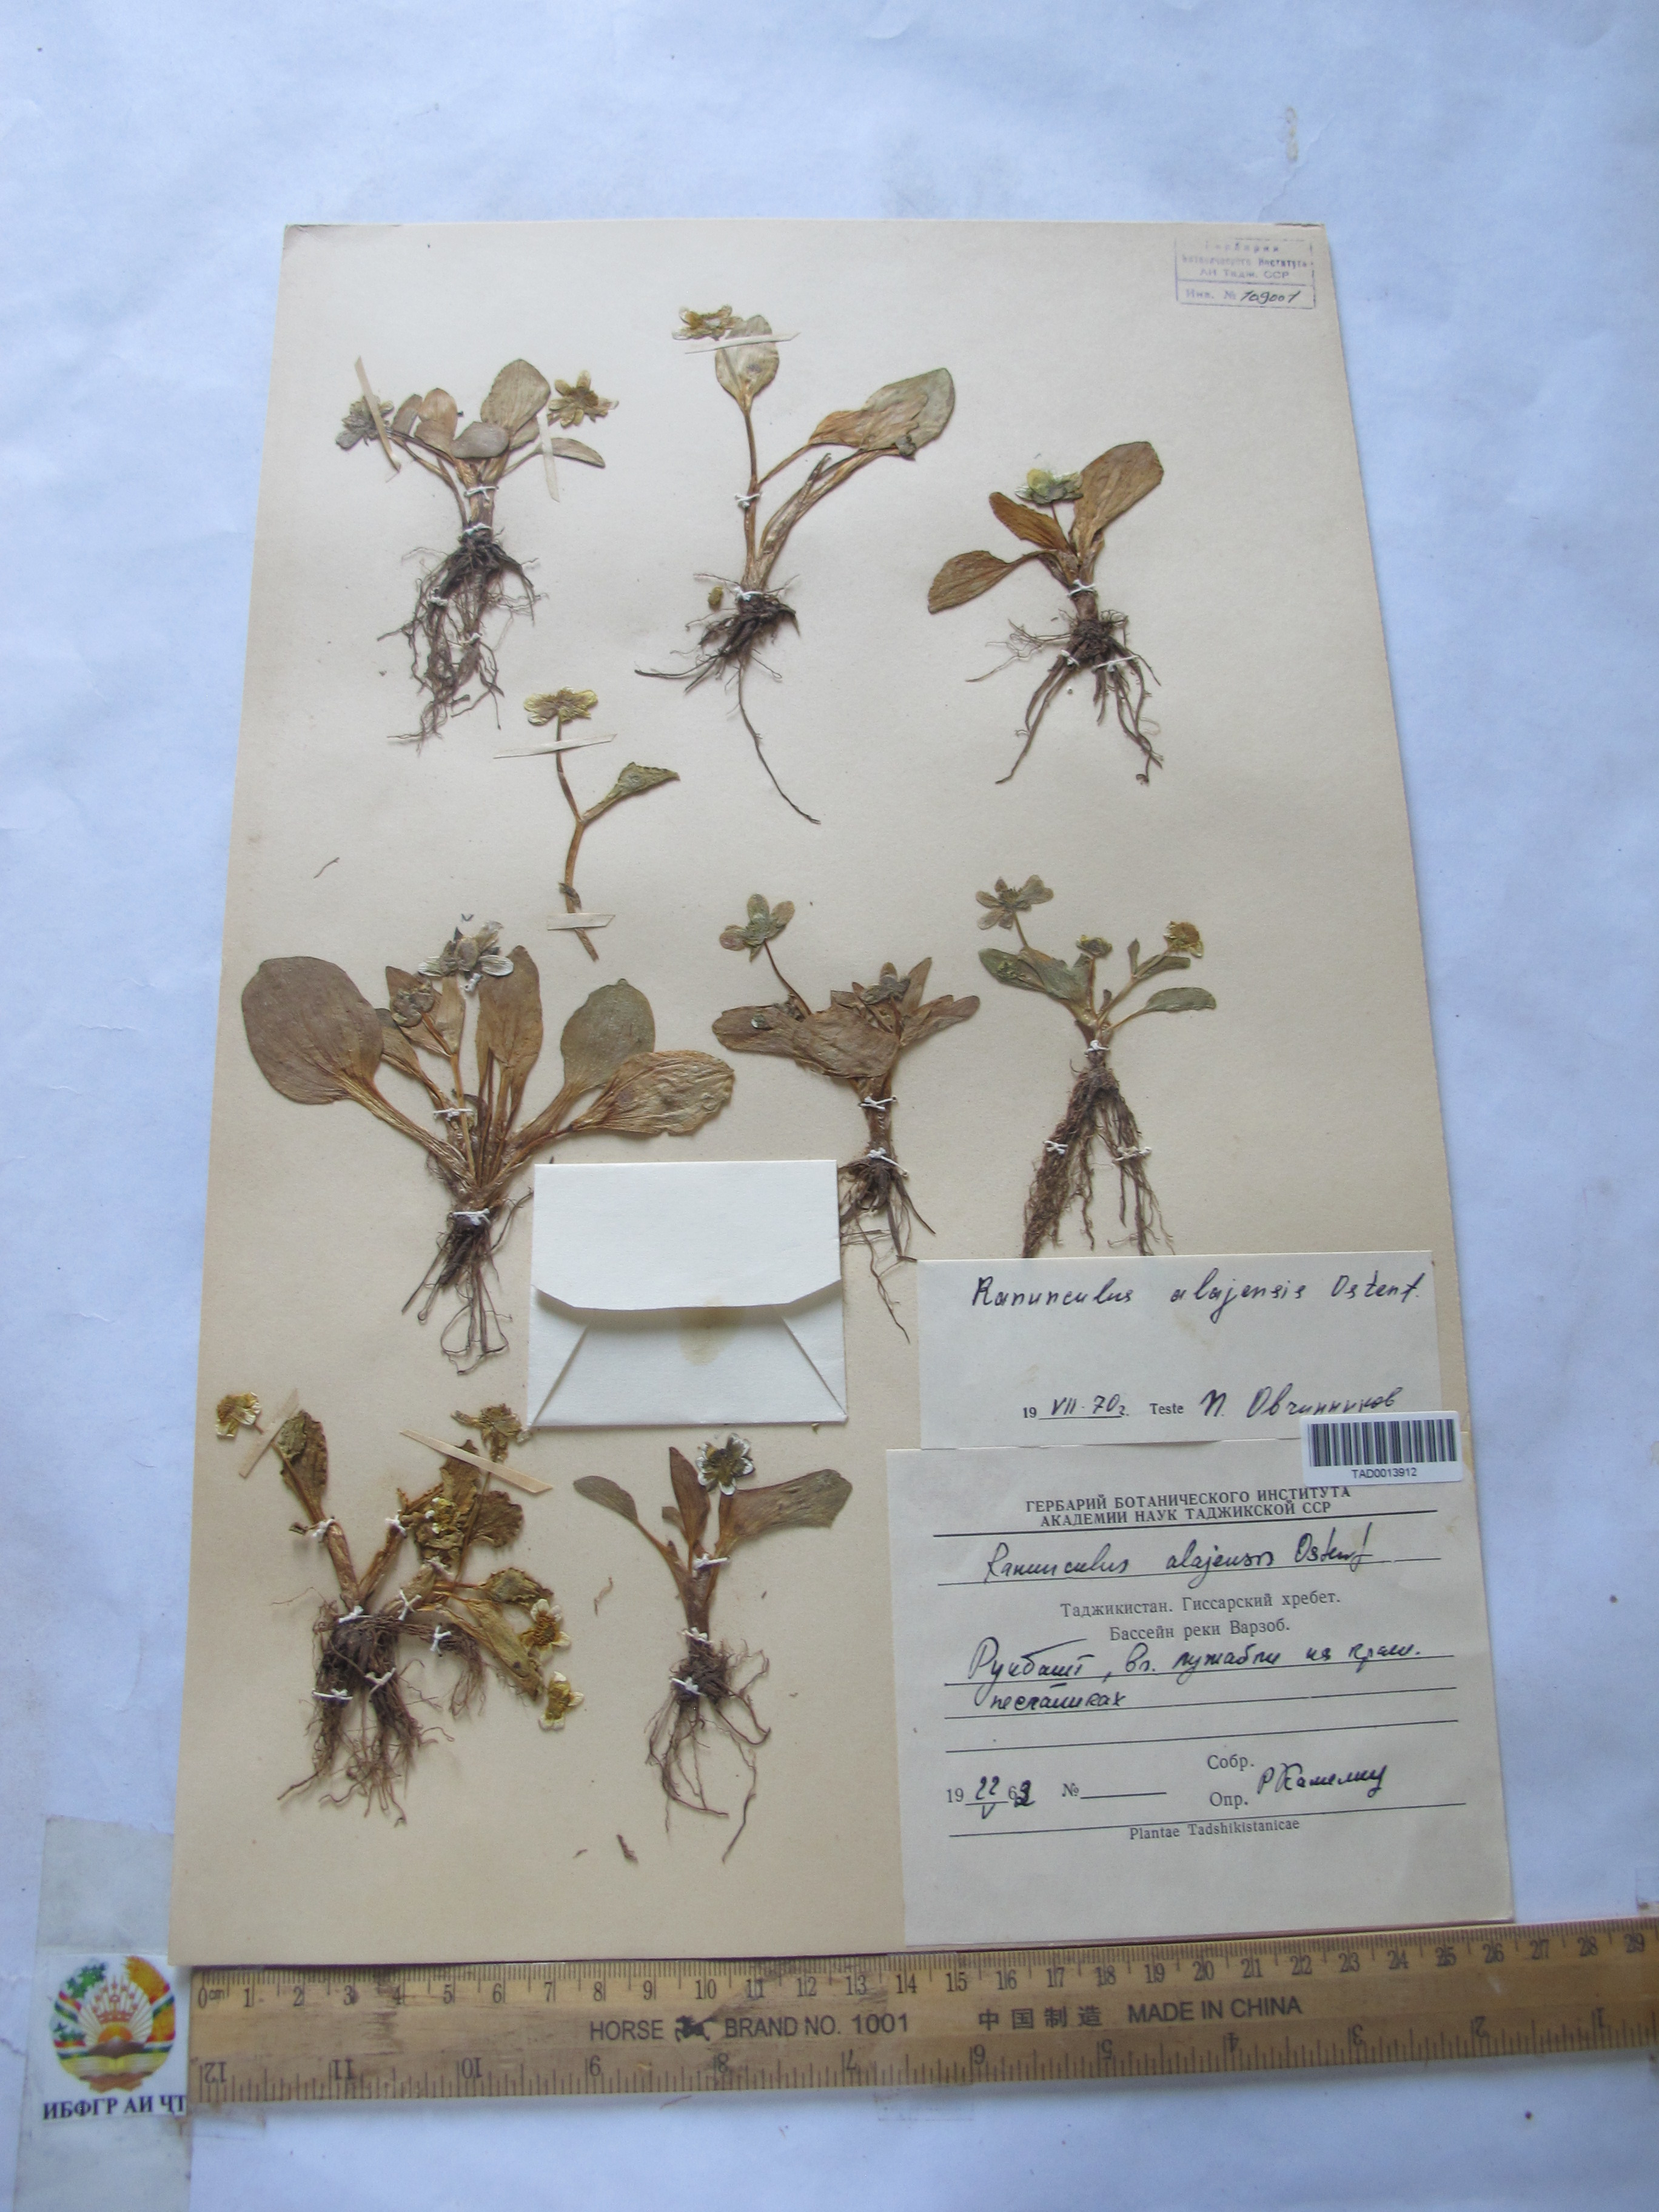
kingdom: Plantae
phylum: Tracheophyta
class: Magnoliopsida
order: Ranunculales
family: Ranunculaceae
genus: Ranunculus
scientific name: Ranunculus alaiensis
